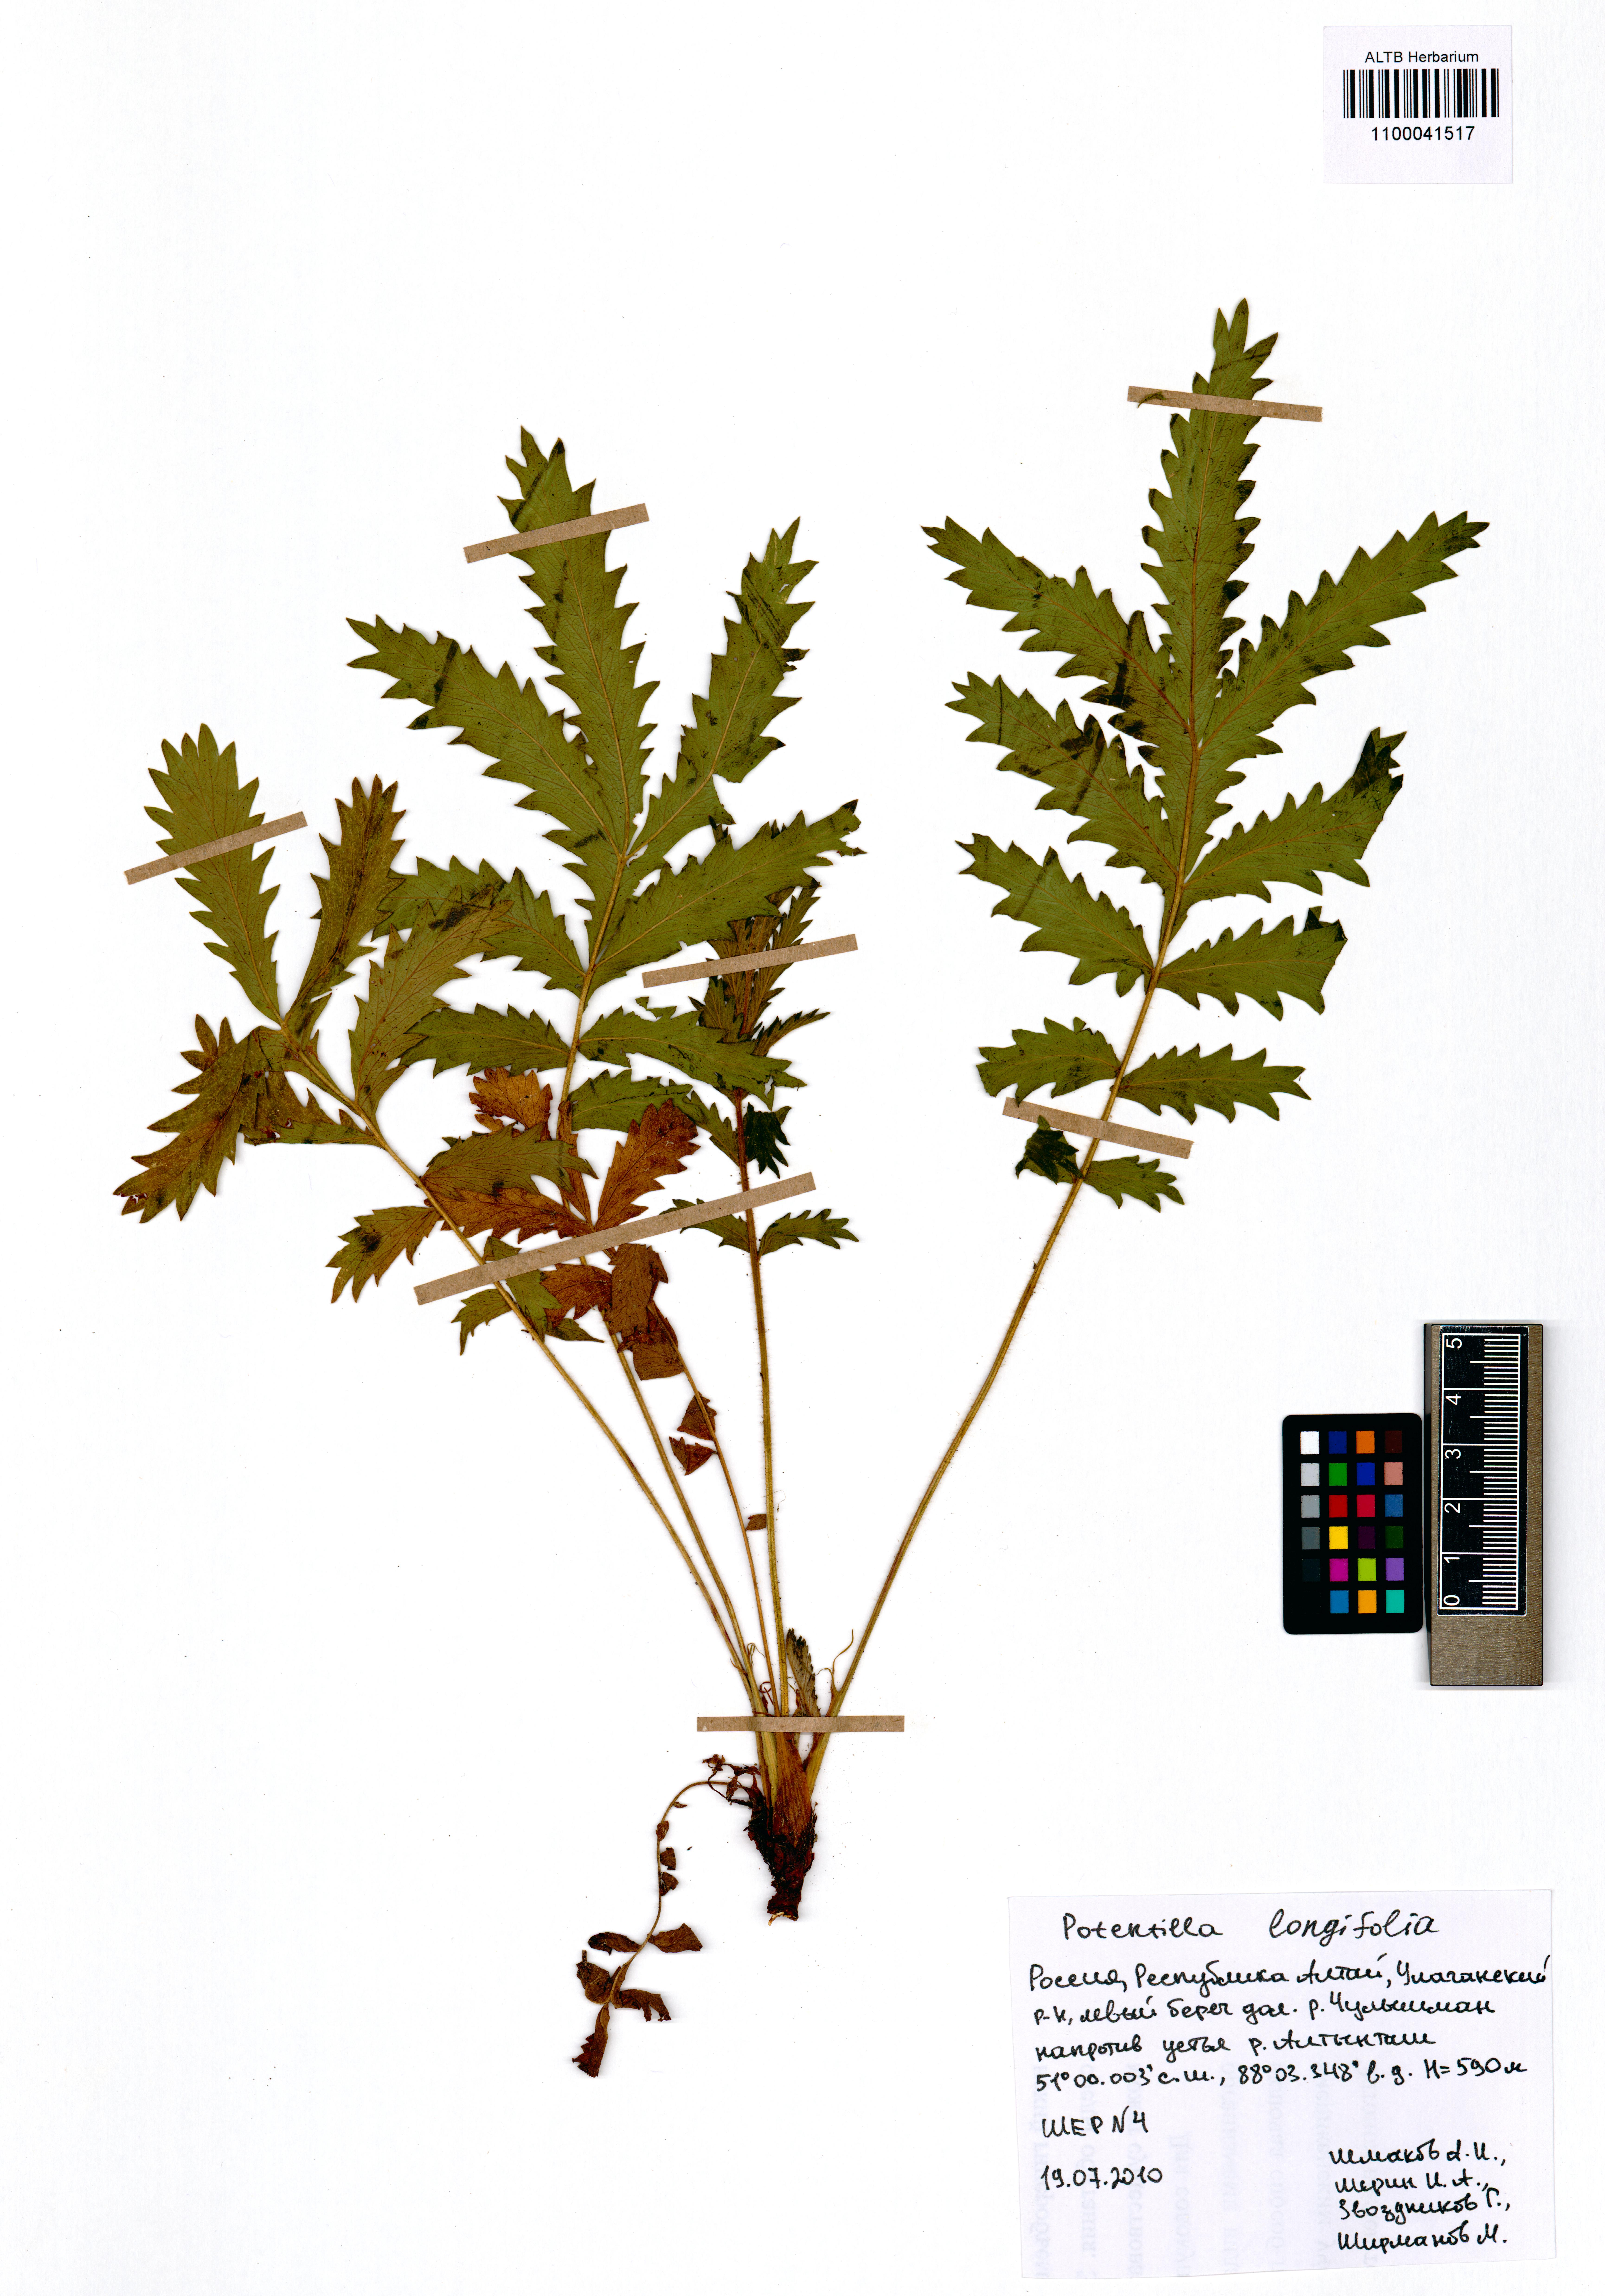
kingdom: Plantae
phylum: Tracheophyta
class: Magnoliopsida
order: Rosales
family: Rosaceae
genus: Potentilla
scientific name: Potentilla longifolia
